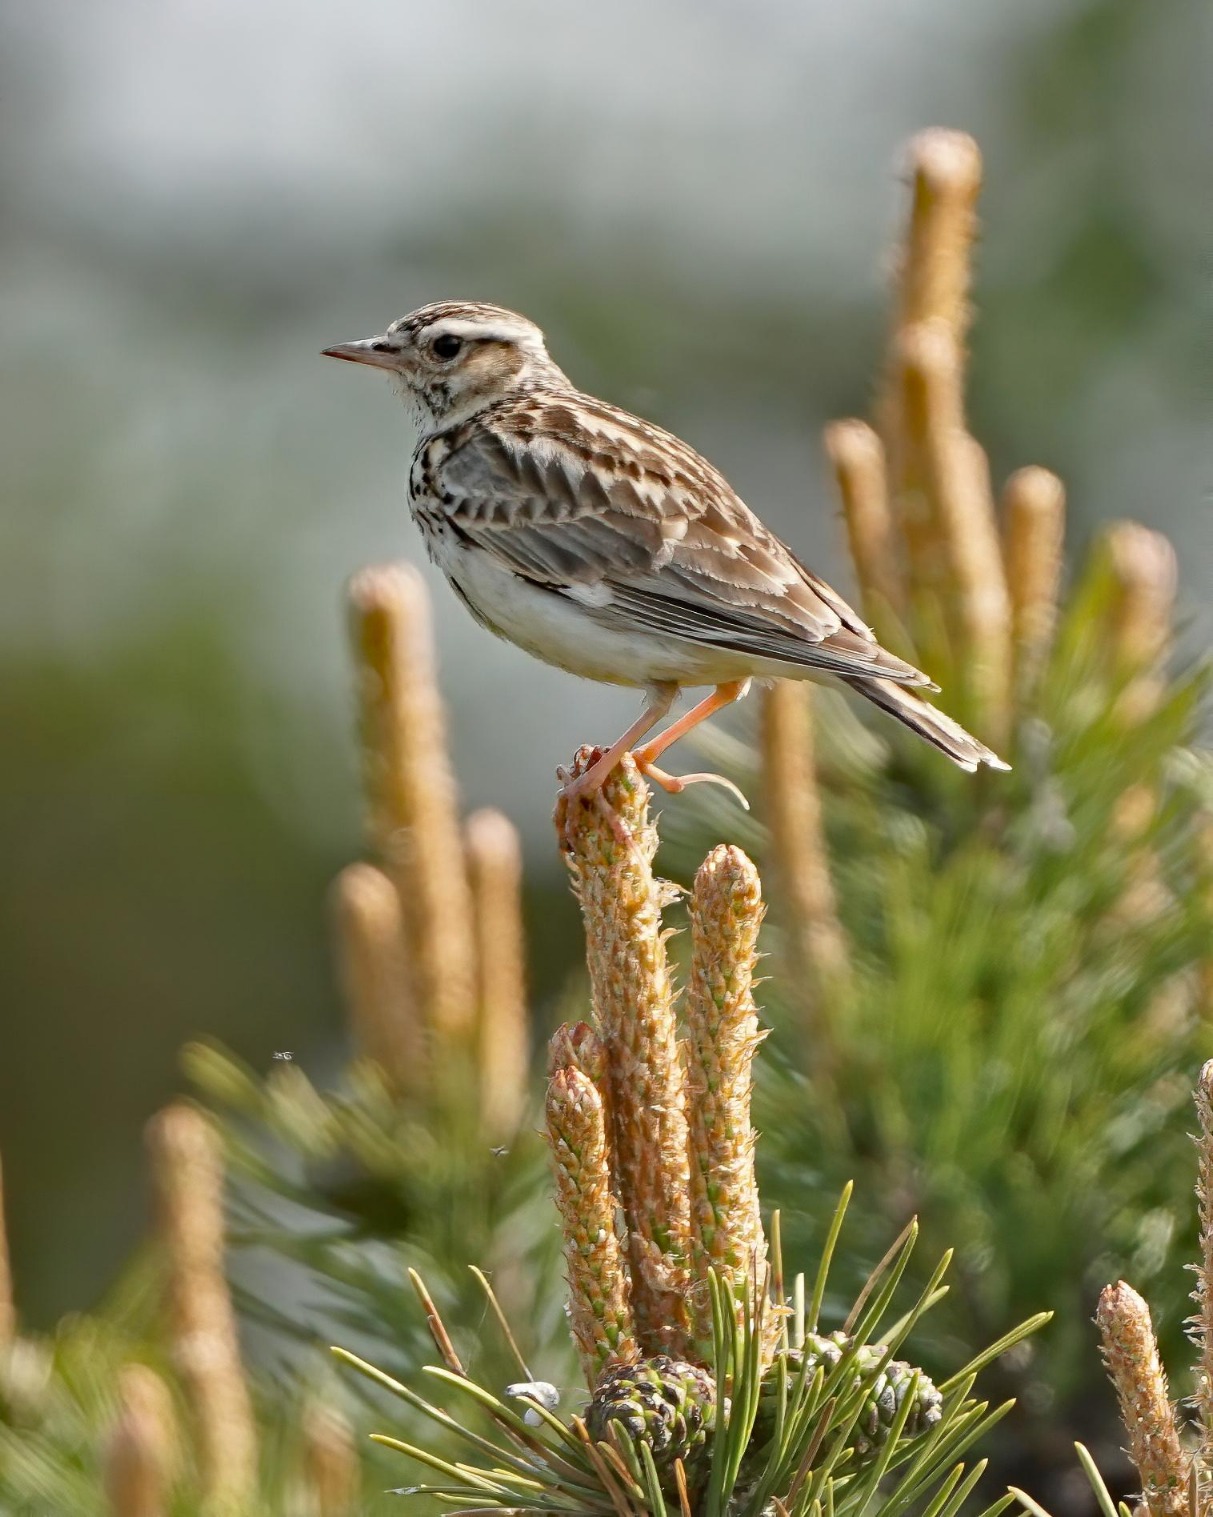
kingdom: Animalia
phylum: Chordata
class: Aves
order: Passeriformes
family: Alaudidae
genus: Lullula
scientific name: Lullula arborea
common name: Hedelærke
